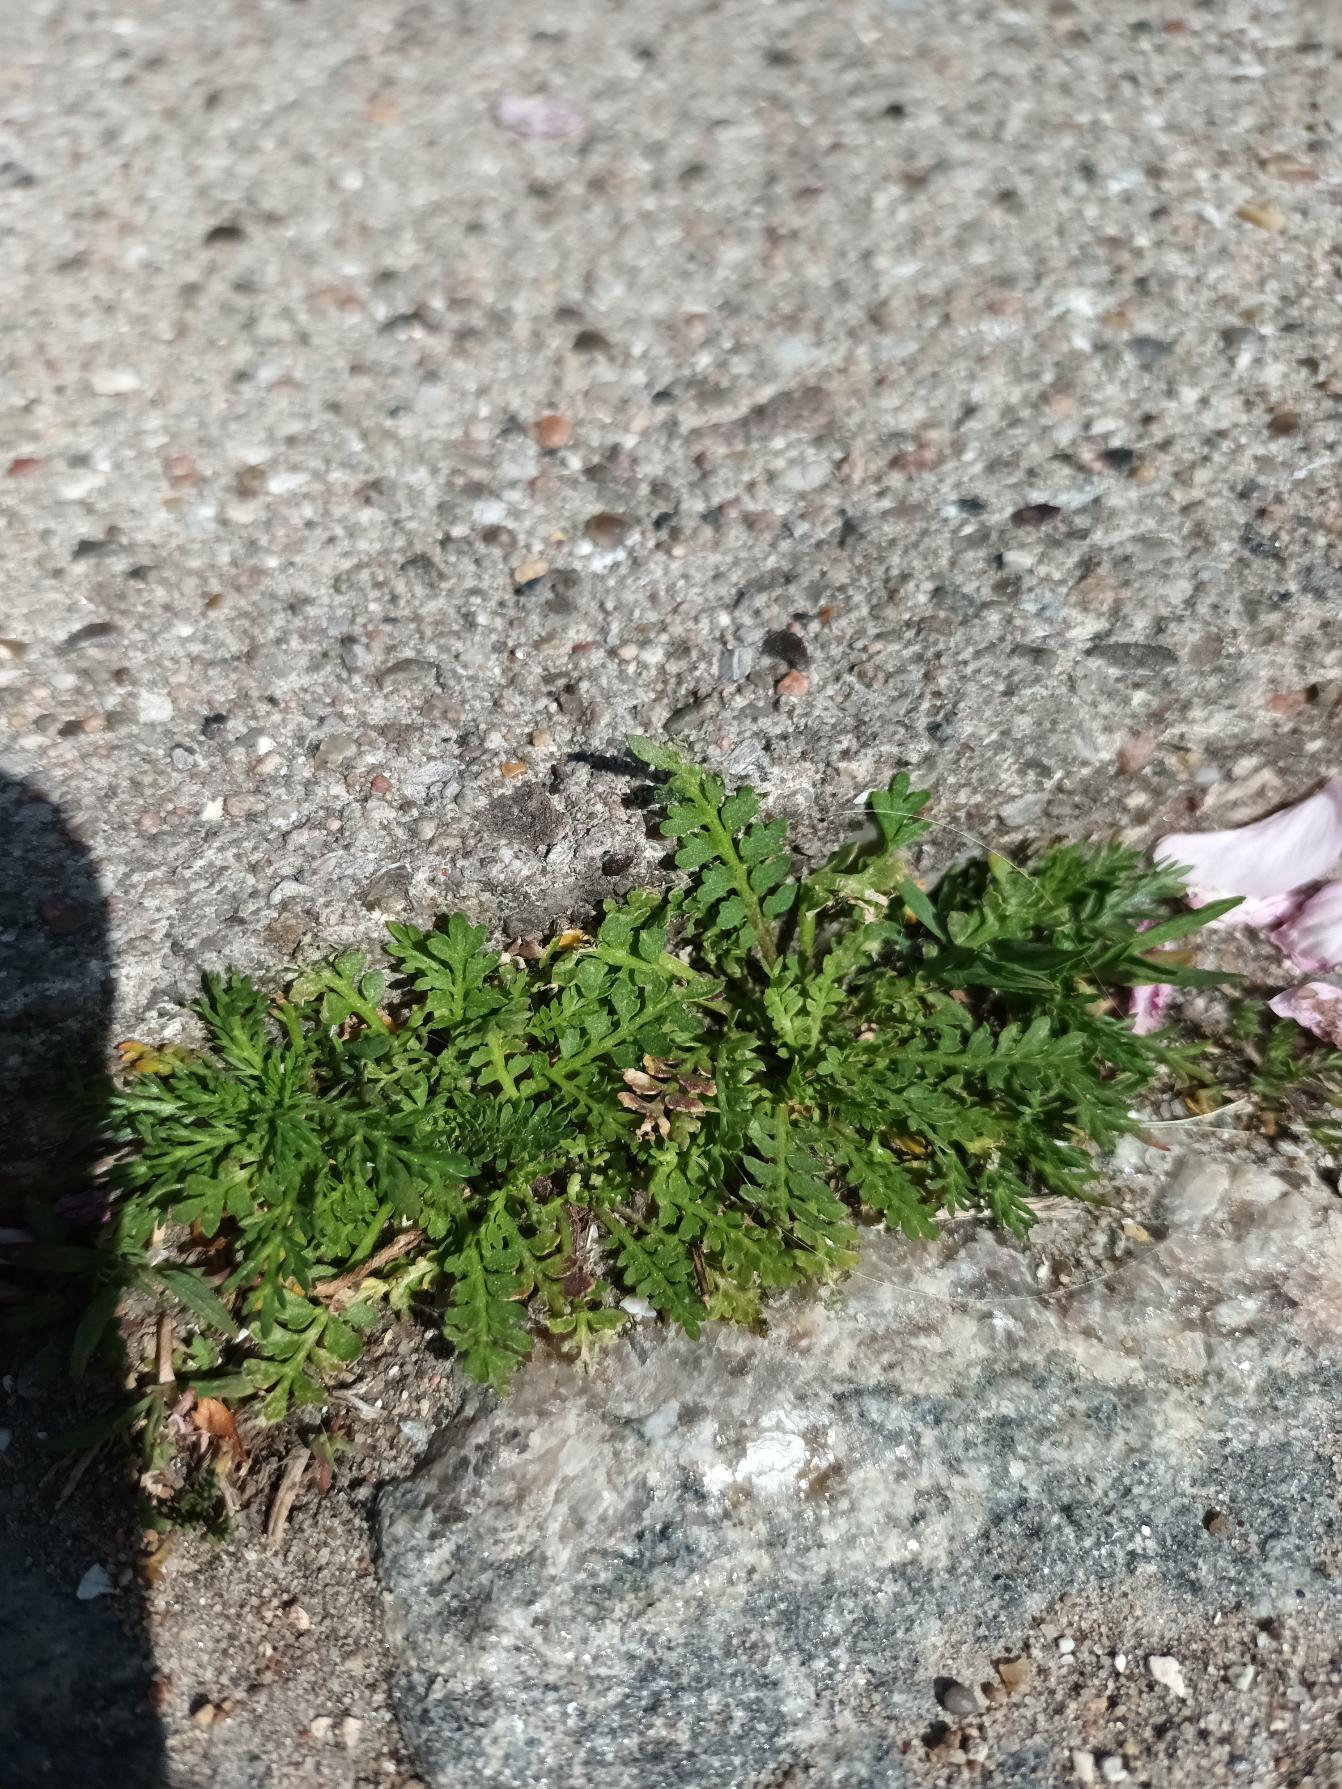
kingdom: Plantae
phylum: Tracheophyta
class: Magnoliopsida
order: Brassicales
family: Brassicaceae
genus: Lepidium
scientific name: Lepidium didymum
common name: Liden ravnefod
